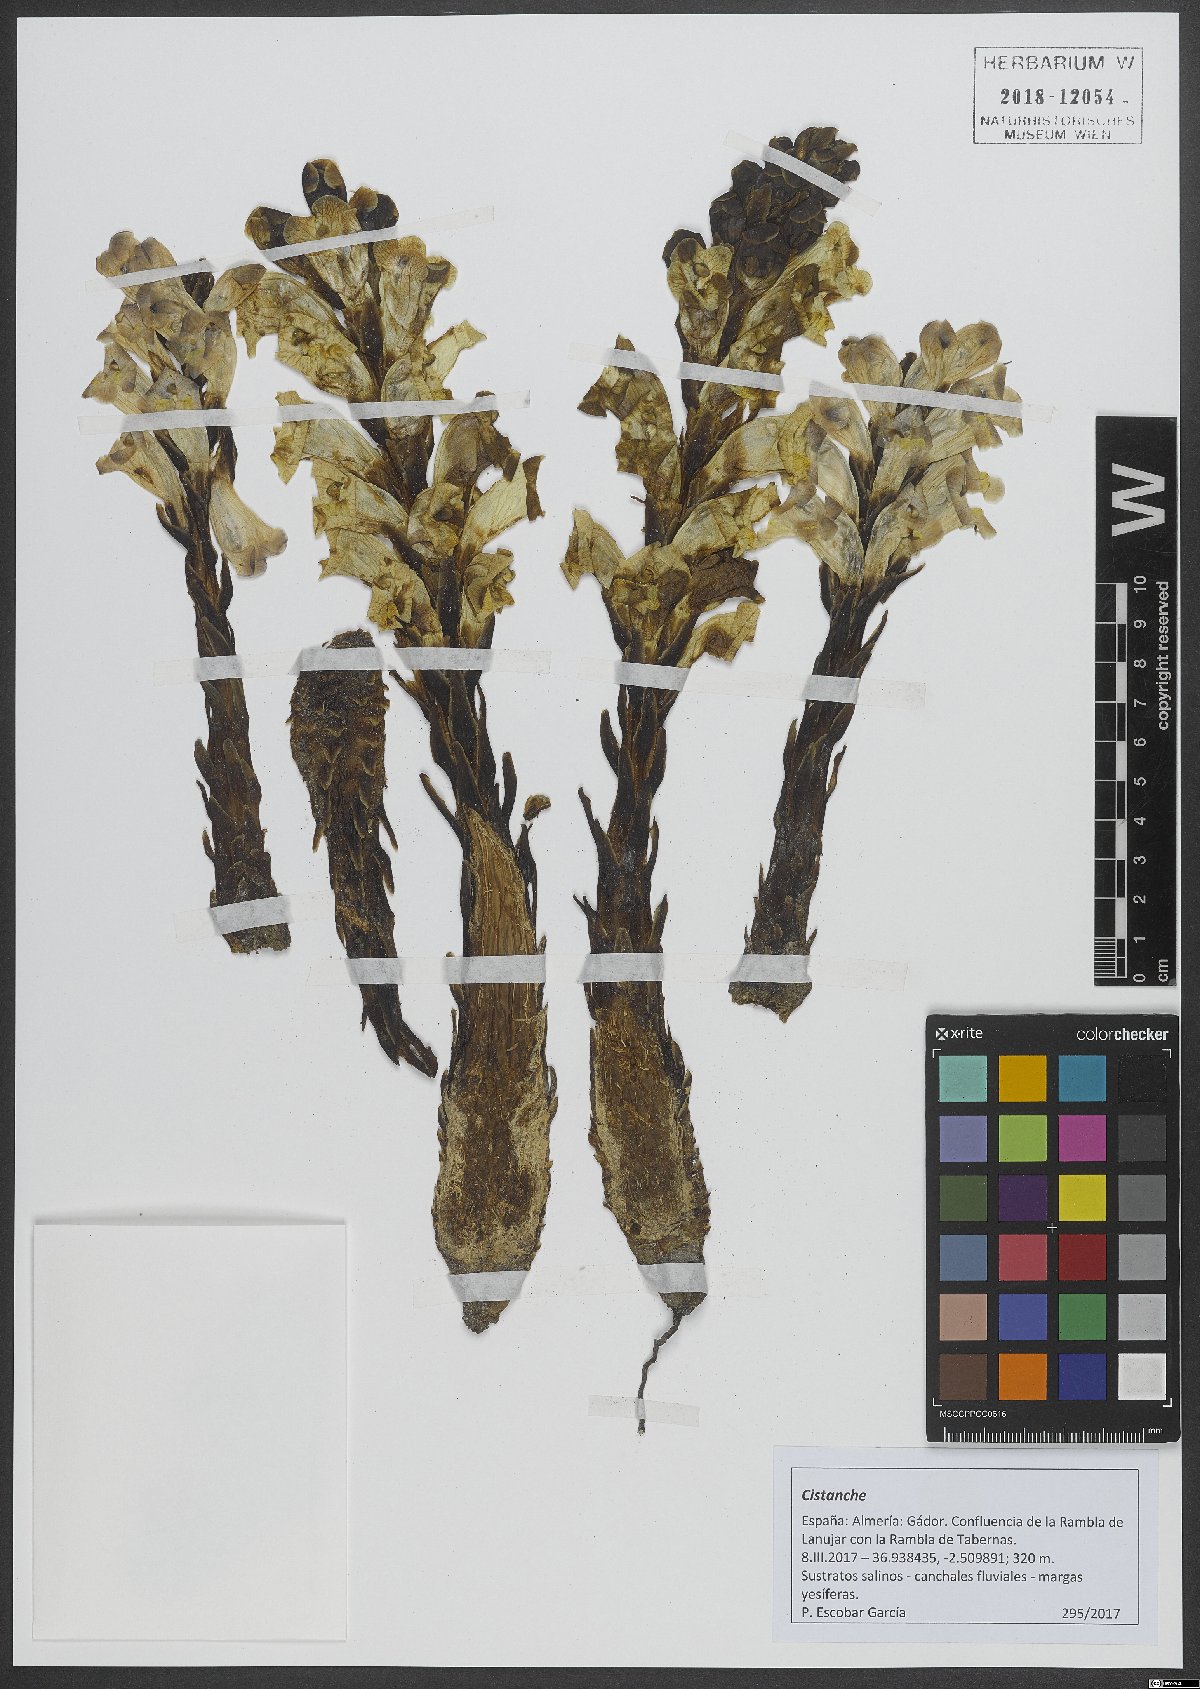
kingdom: Plantae
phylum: Tracheophyta
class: Magnoliopsida
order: Lamiales
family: Orobanchaceae
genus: Cistanche
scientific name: Cistanche
